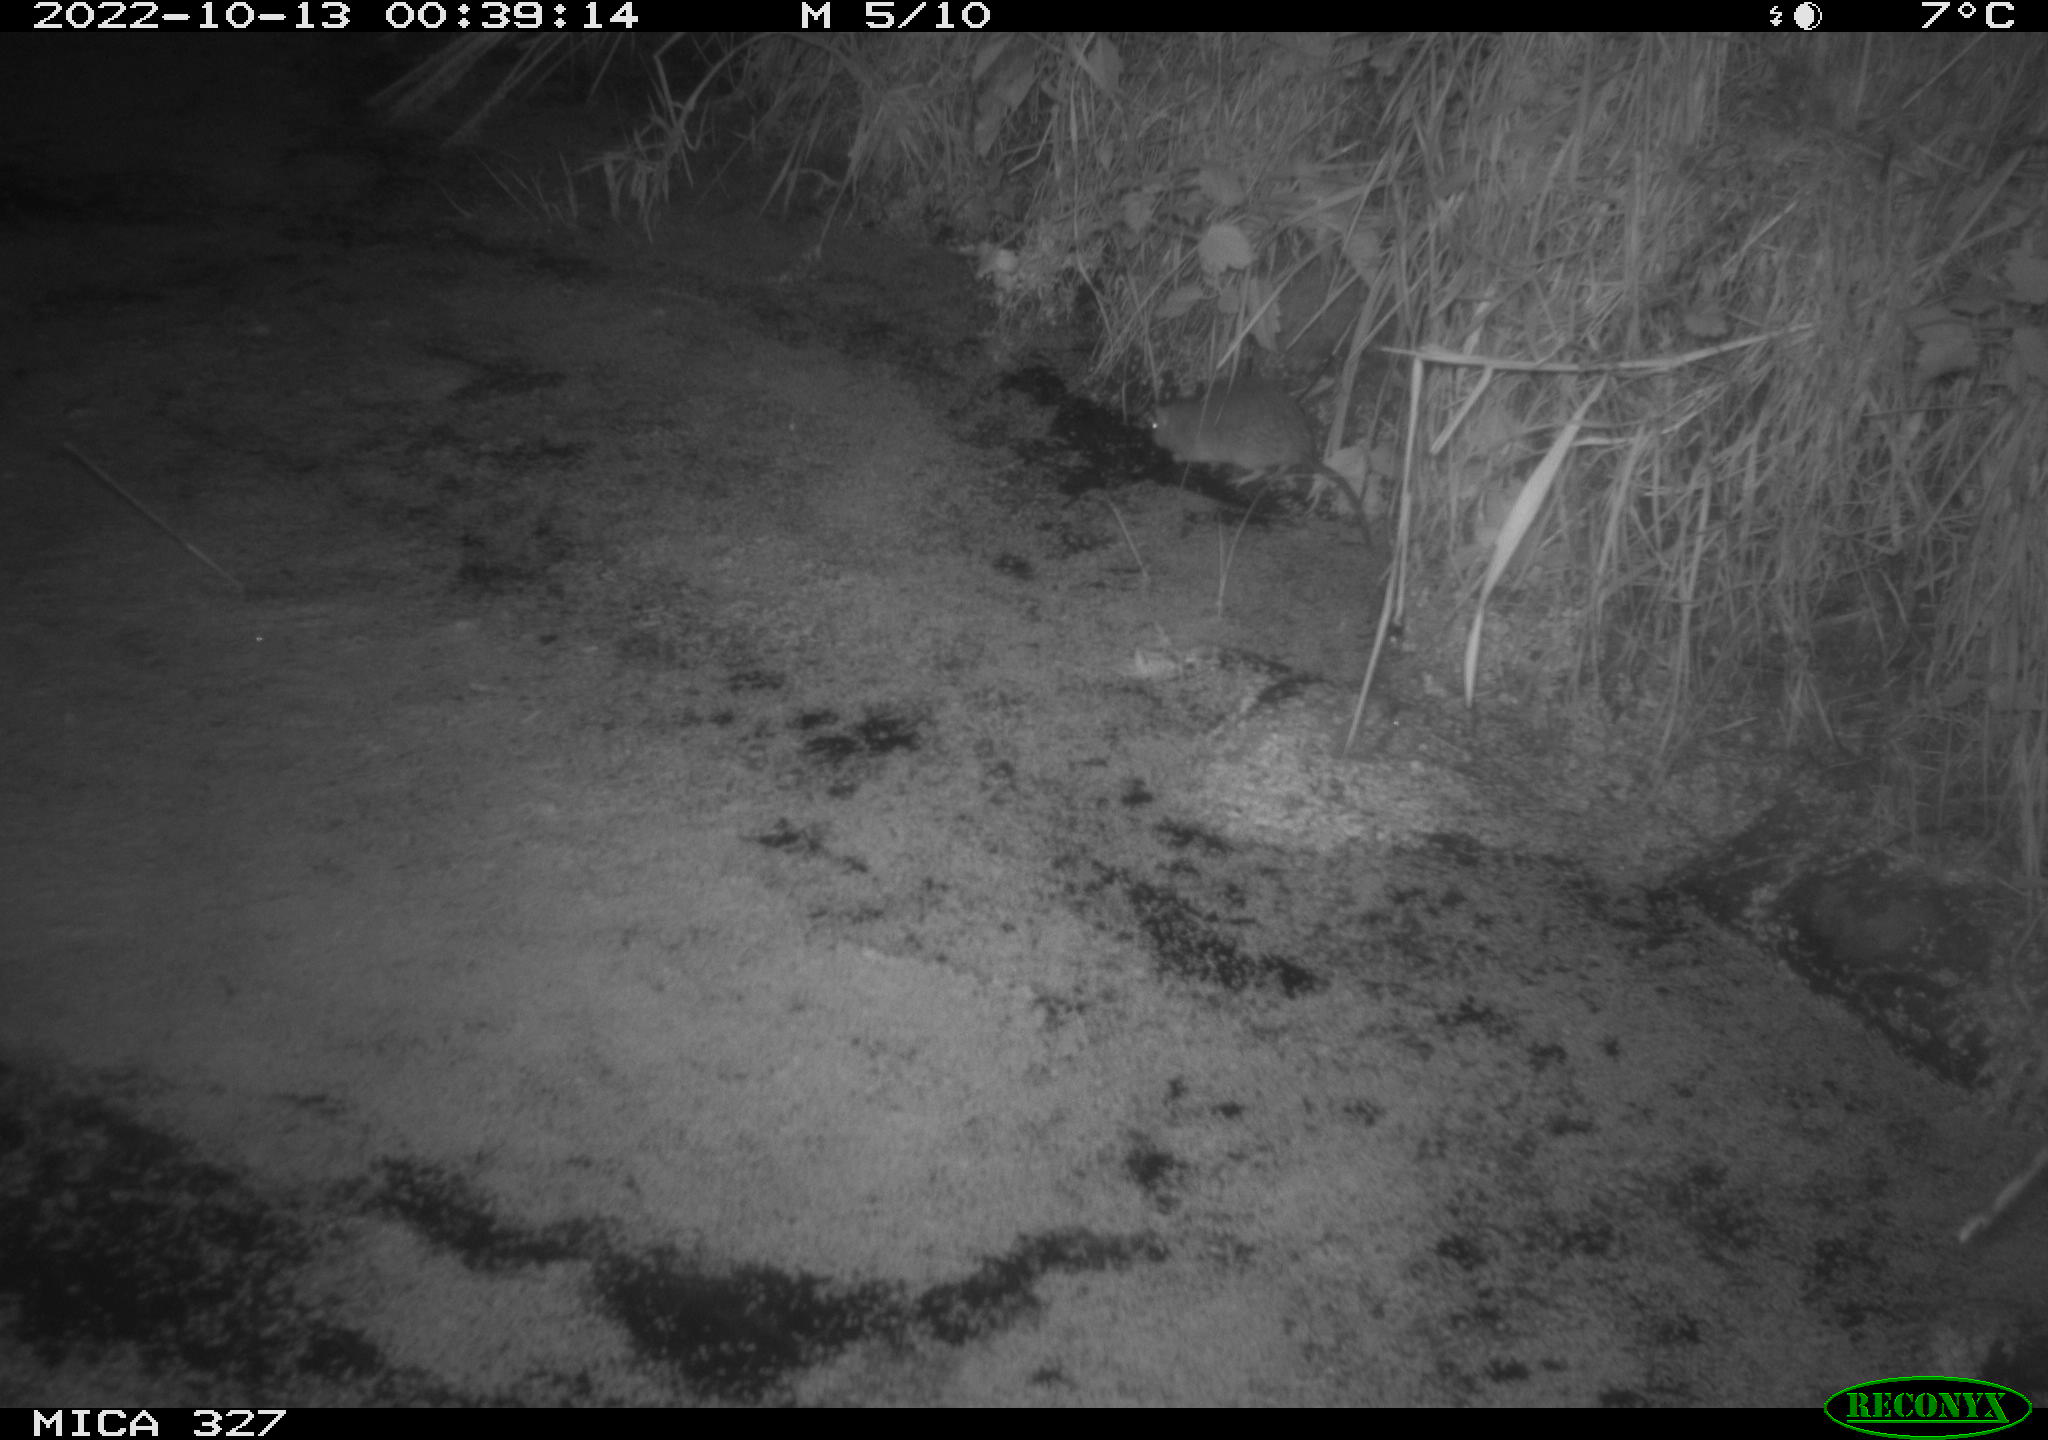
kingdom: Animalia
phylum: Chordata
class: Mammalia
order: Rodentia
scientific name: Rodentia
